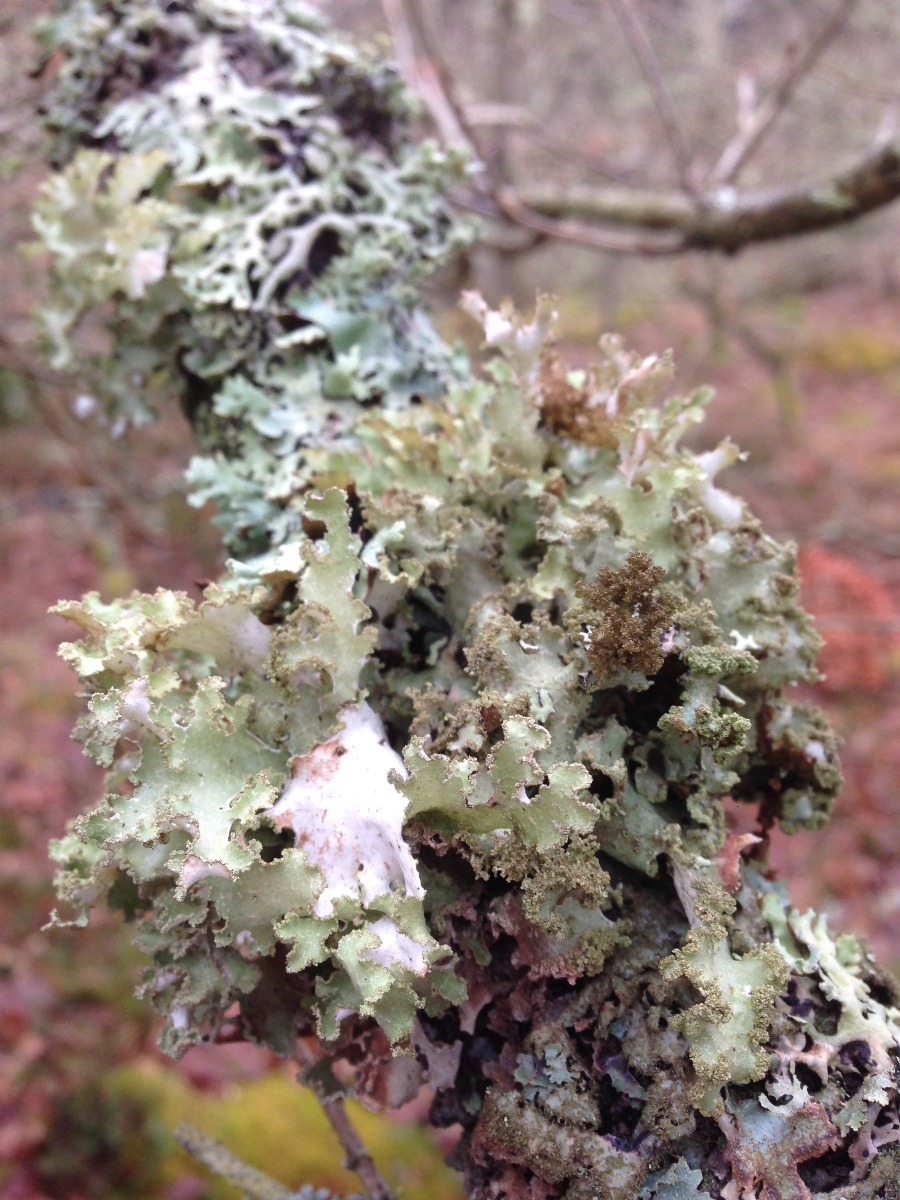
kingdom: Fungi
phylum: Ascomycota
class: Lecanoromycetes
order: Lecanorales
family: Parmeliaceae
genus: Platismatia
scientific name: Platismatia glauca
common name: blågrå papirlav
